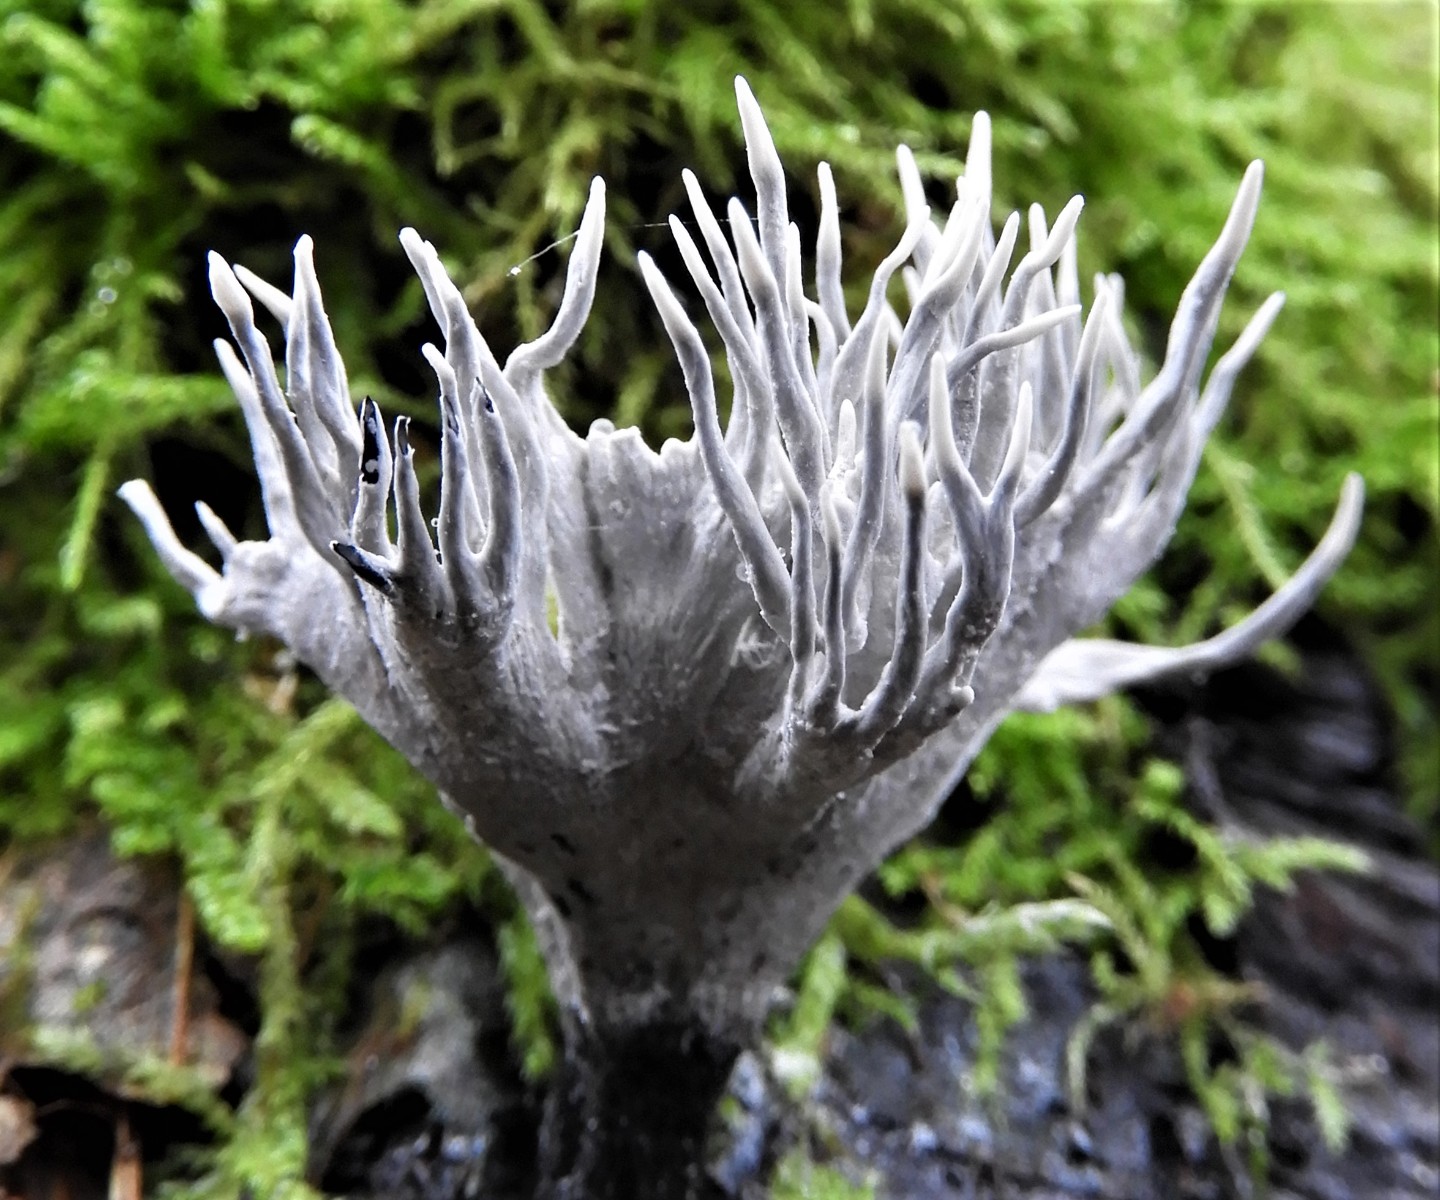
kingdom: Fungi
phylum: Ascomycota
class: Sordariomycetes
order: Xylariales
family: Xylariaceae
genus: Xylaria
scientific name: Xylaria hypoxylon
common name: grenet stødsvamp
